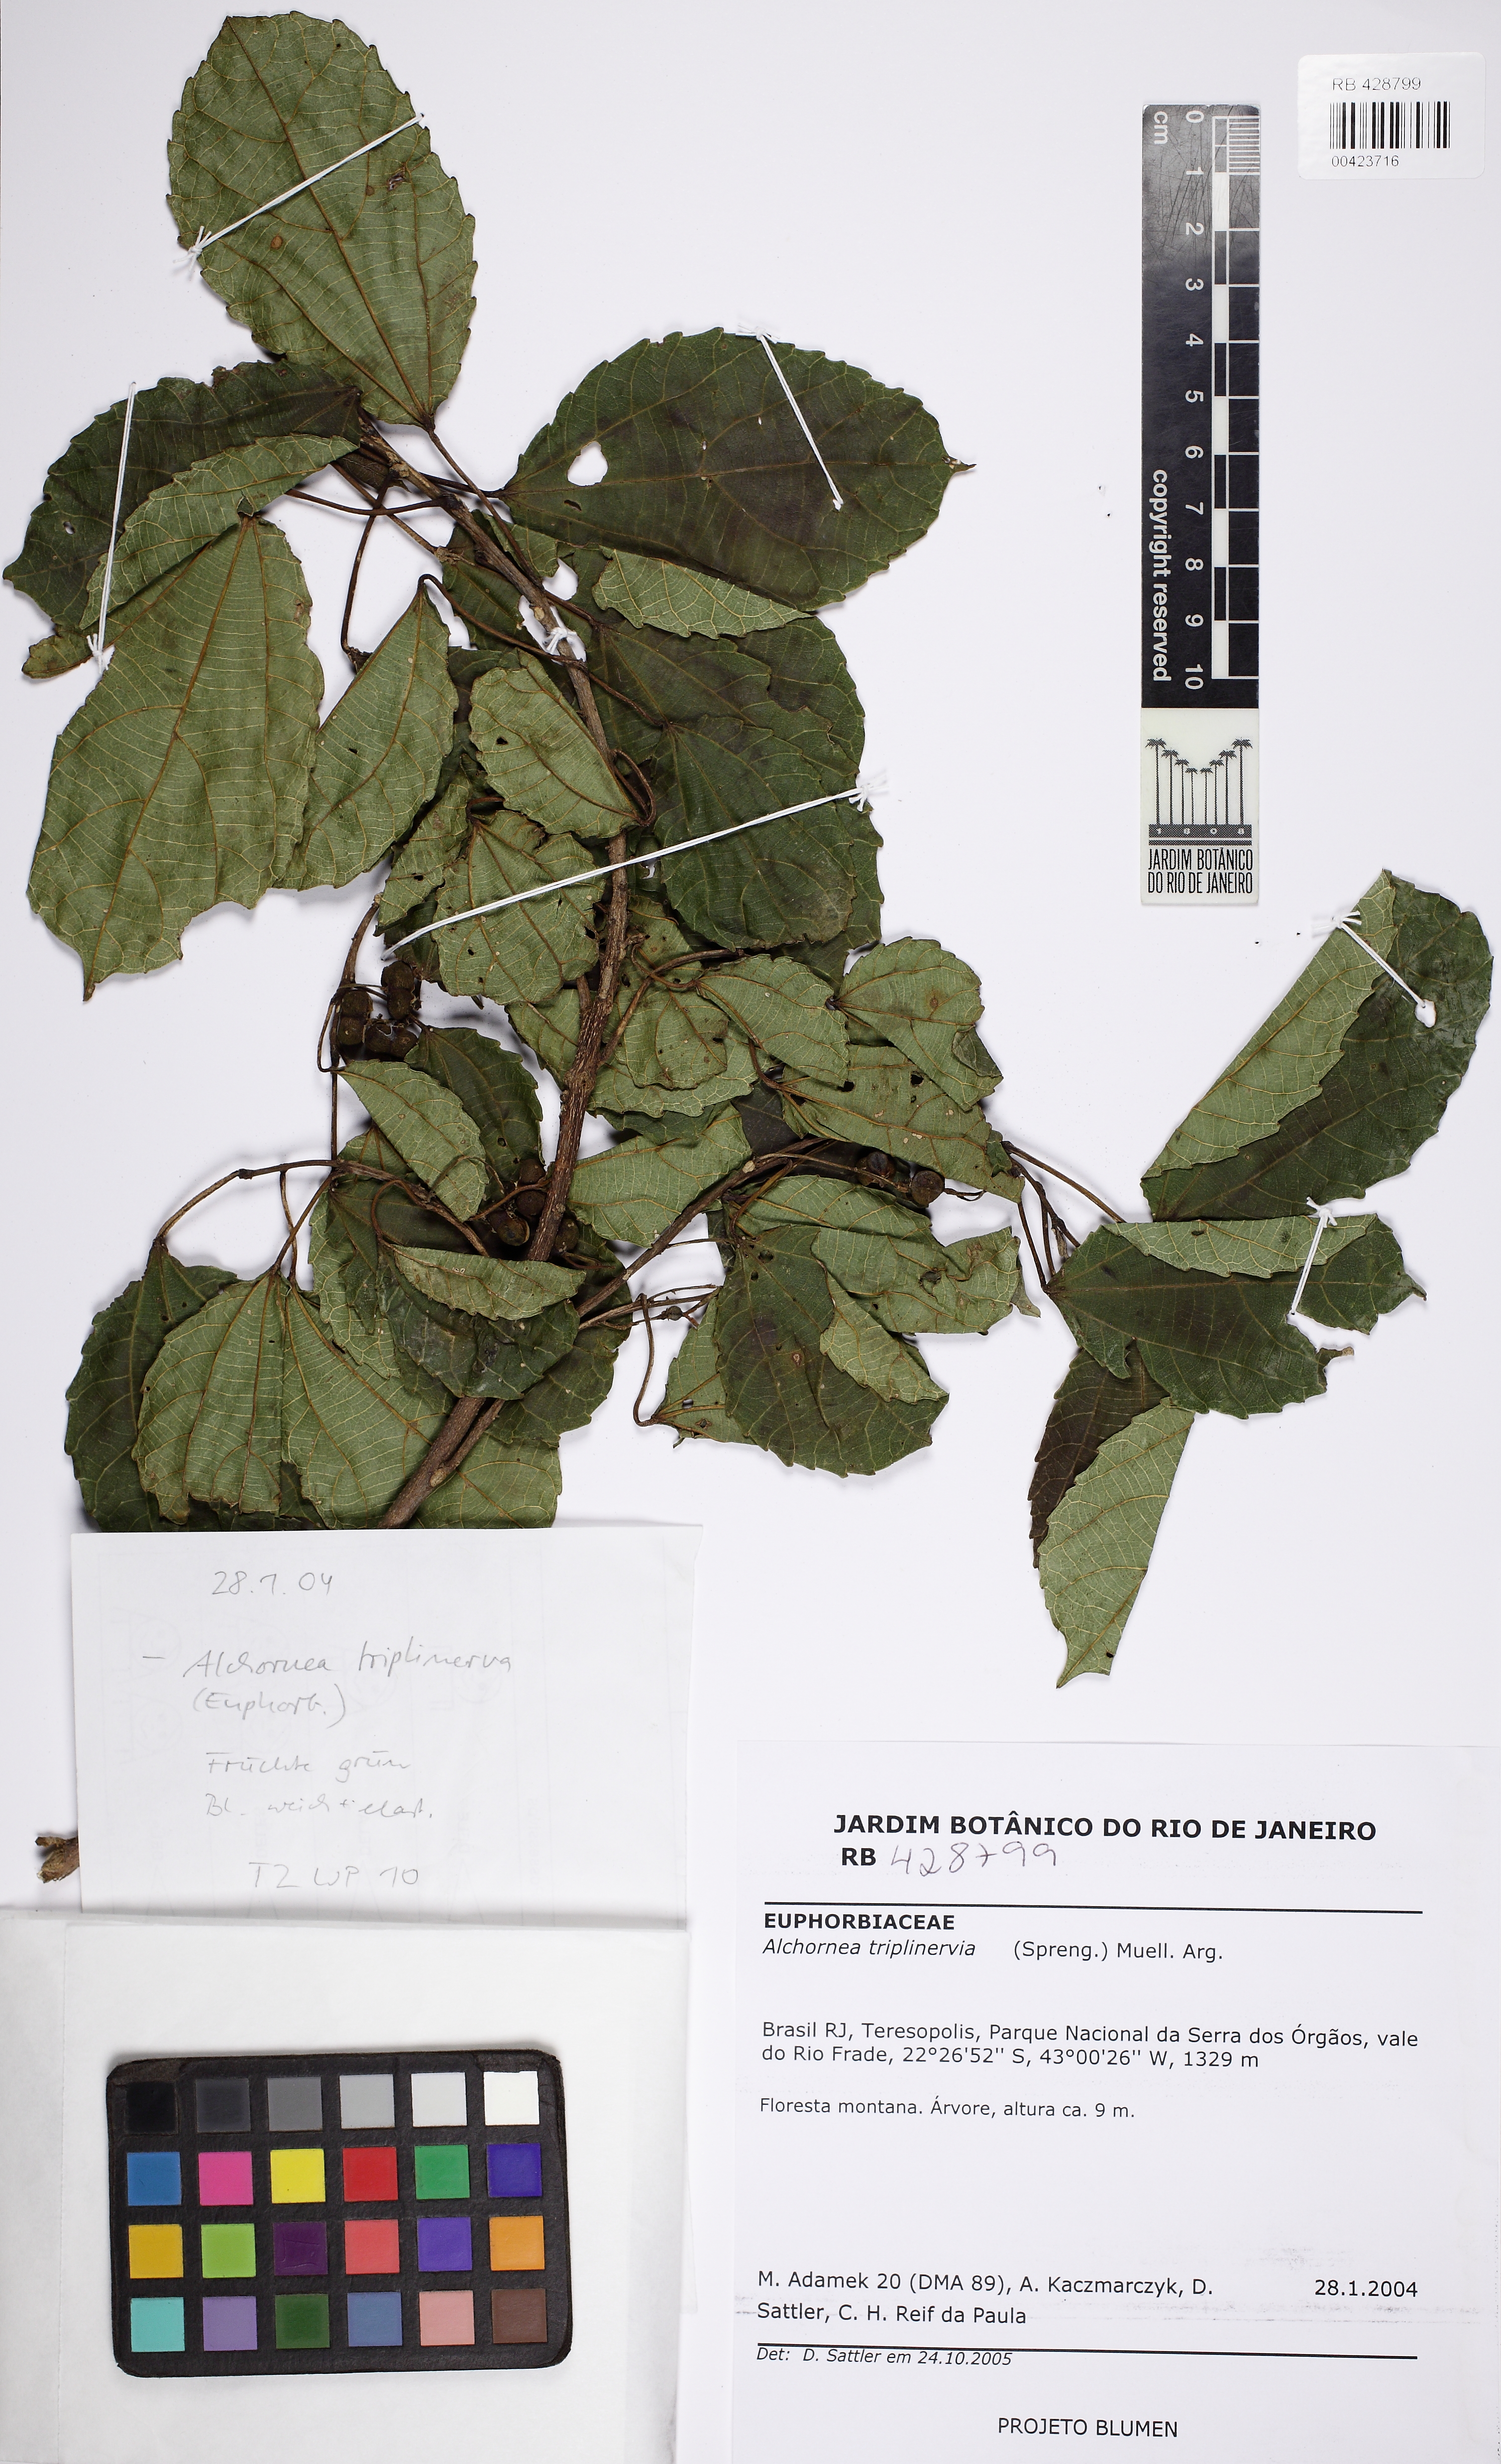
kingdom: Plantae
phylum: Tracheophyta
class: Magnoliopsida
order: Malpighiales
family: Euphorbiaceae
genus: Alchornea
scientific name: Alchornea triplinervia
